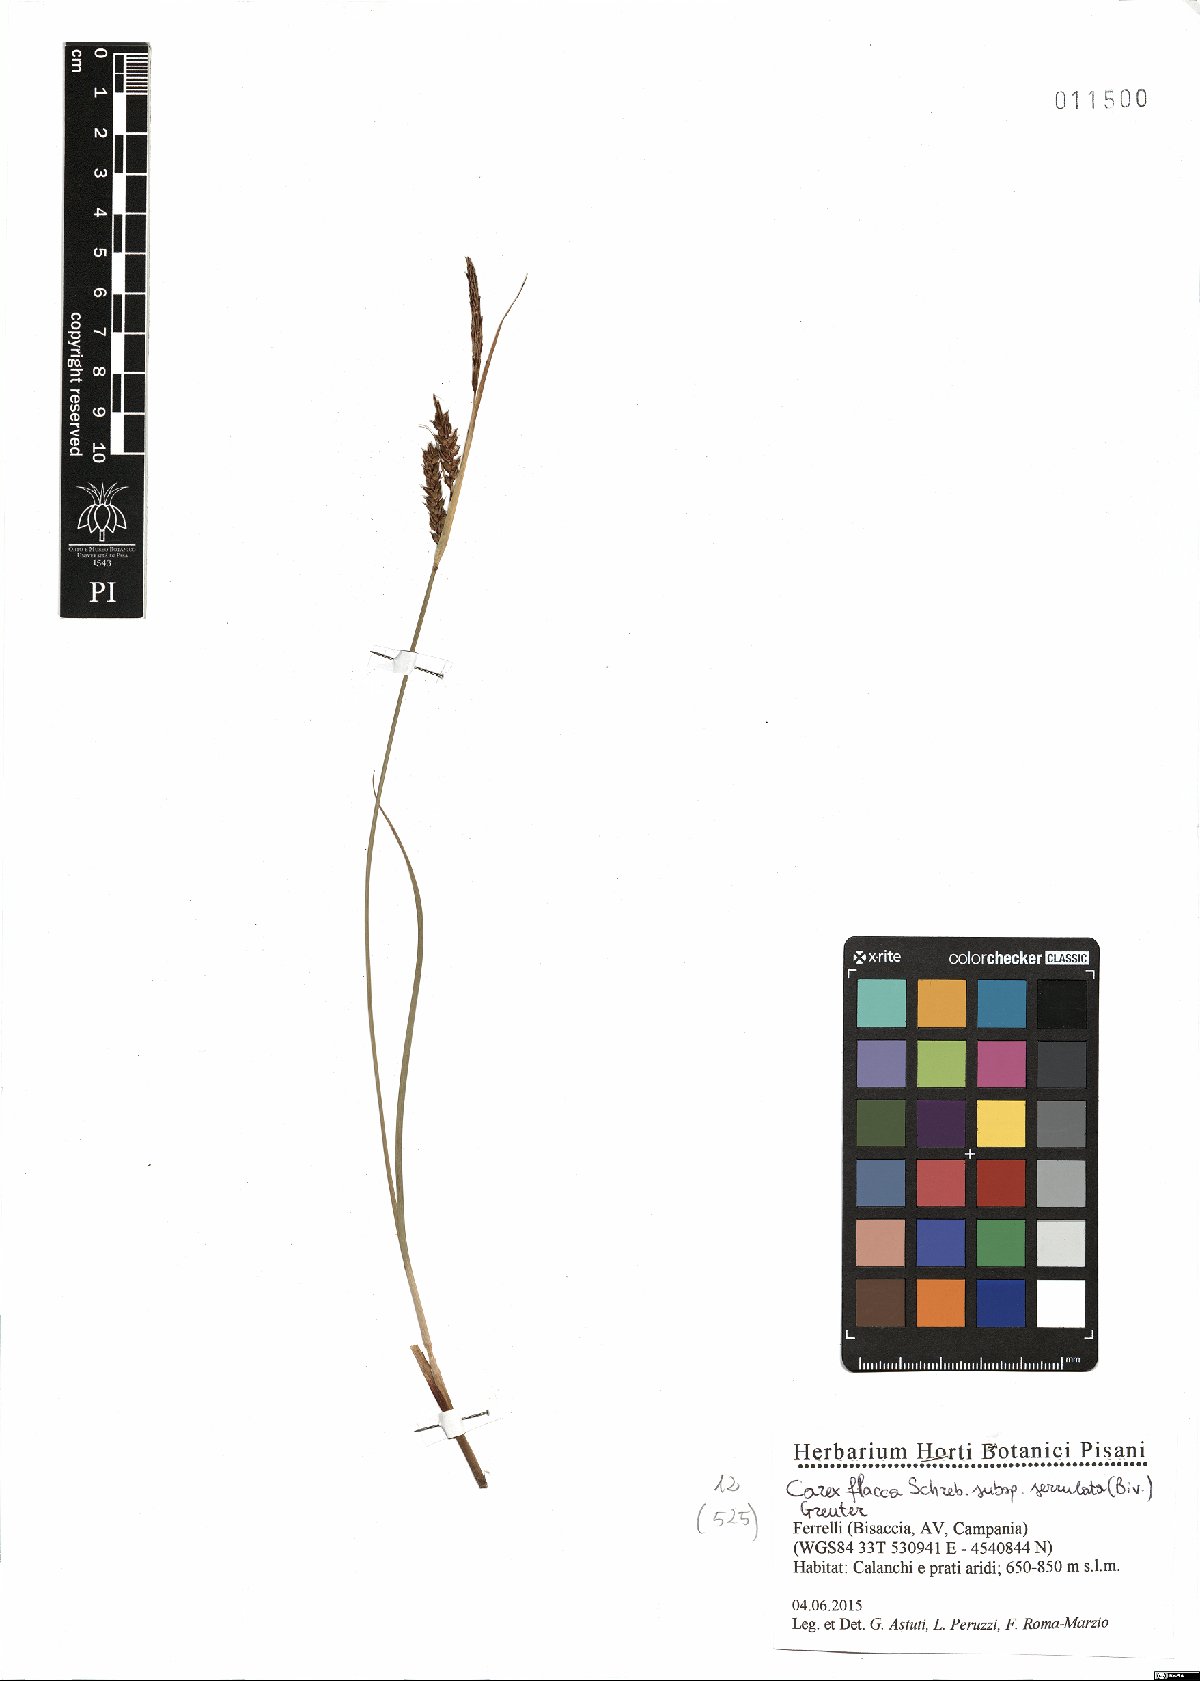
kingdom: Plantae
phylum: Tracheophyta
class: Liliopsida
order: Poales
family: Cyperaceae
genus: Carex
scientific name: Carex flacca
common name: Glaucous sedge
